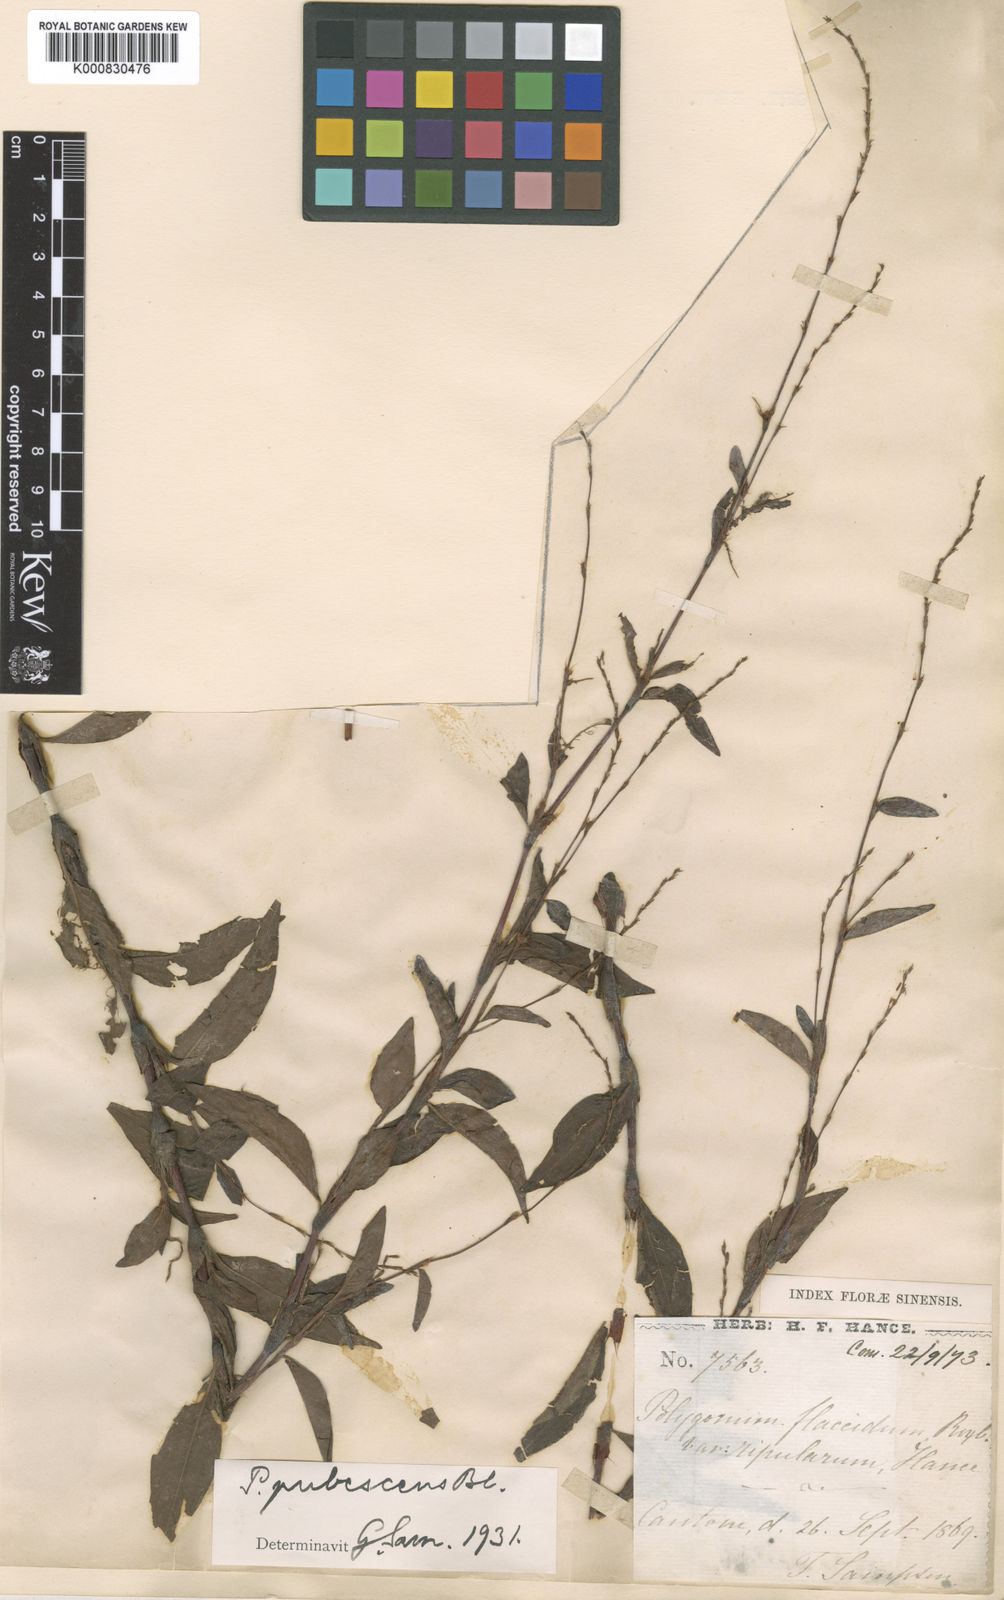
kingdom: Plantae
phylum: Tracheophyta
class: Magnoliopsida
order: Caryophyllales
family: Polygonaceae
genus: Persicaria
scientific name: Persicaria pubescens
